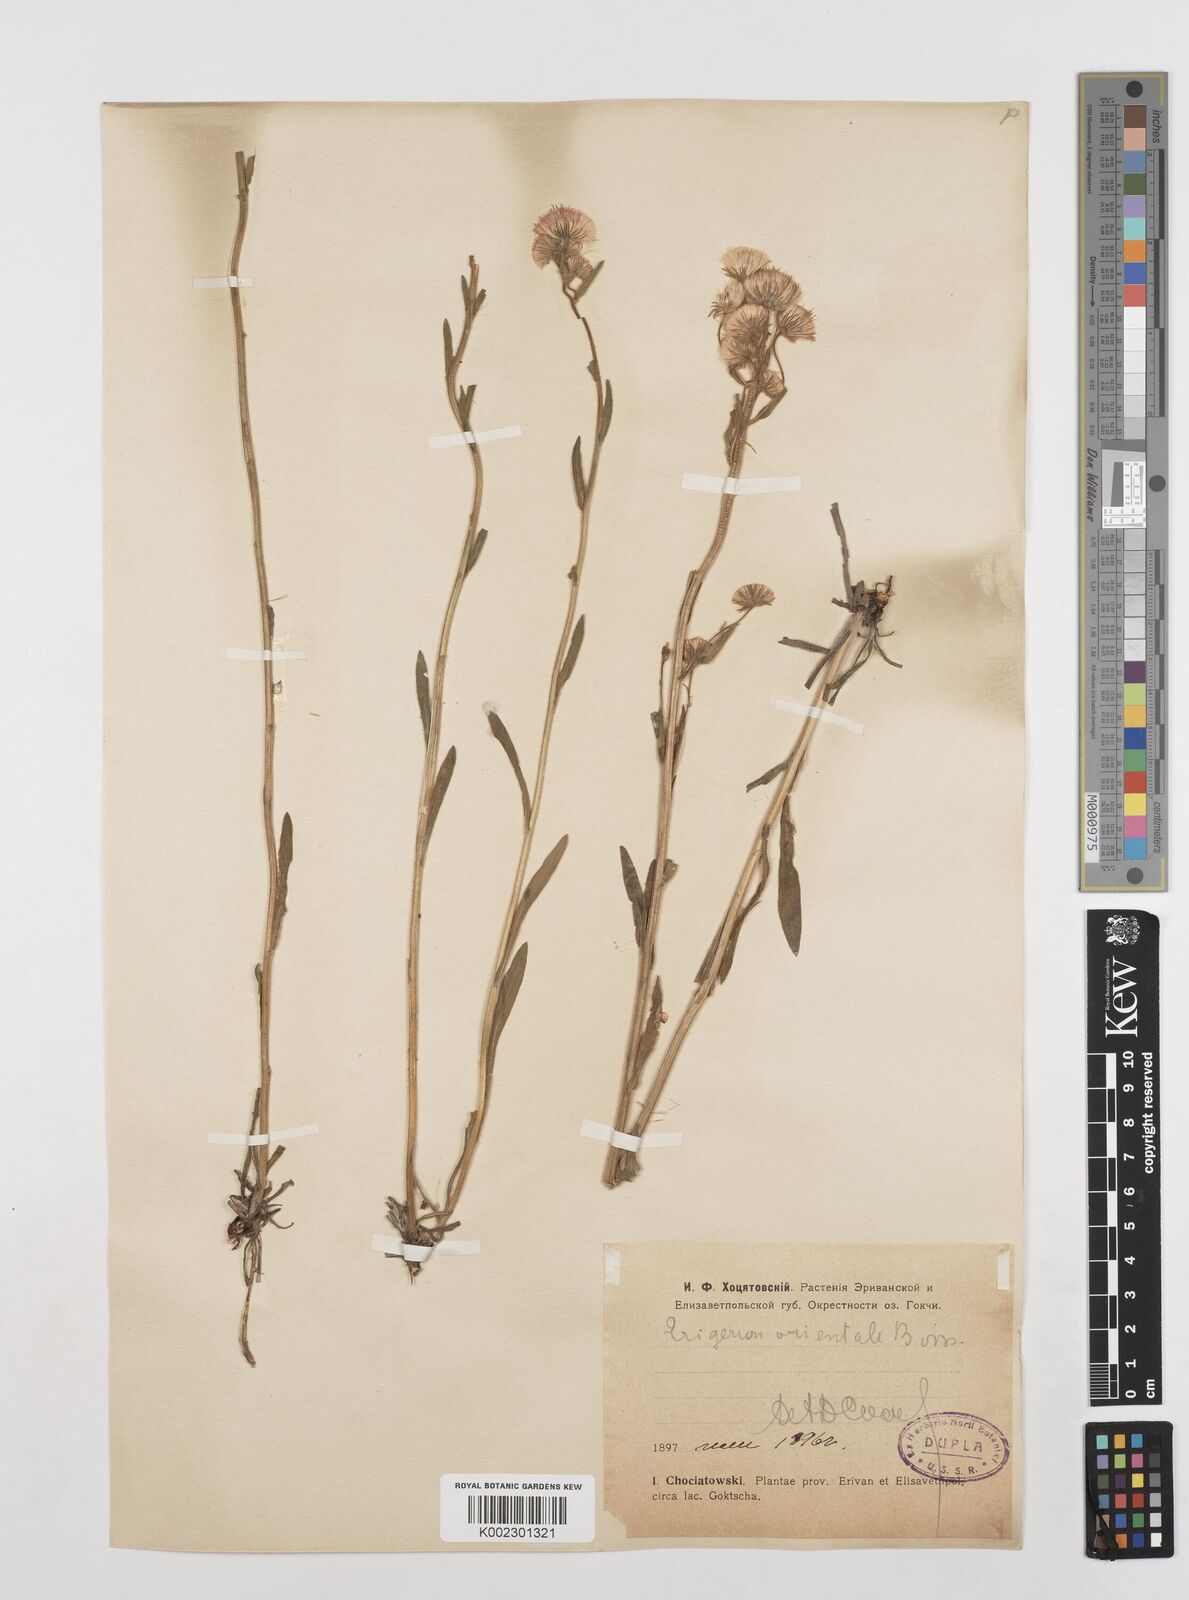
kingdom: Plantae
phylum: Tracheophyta
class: Magnoliopsida
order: Asterales
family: Asteraceae
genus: Erigeron
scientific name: Erigeron acris
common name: Blue fleabane
